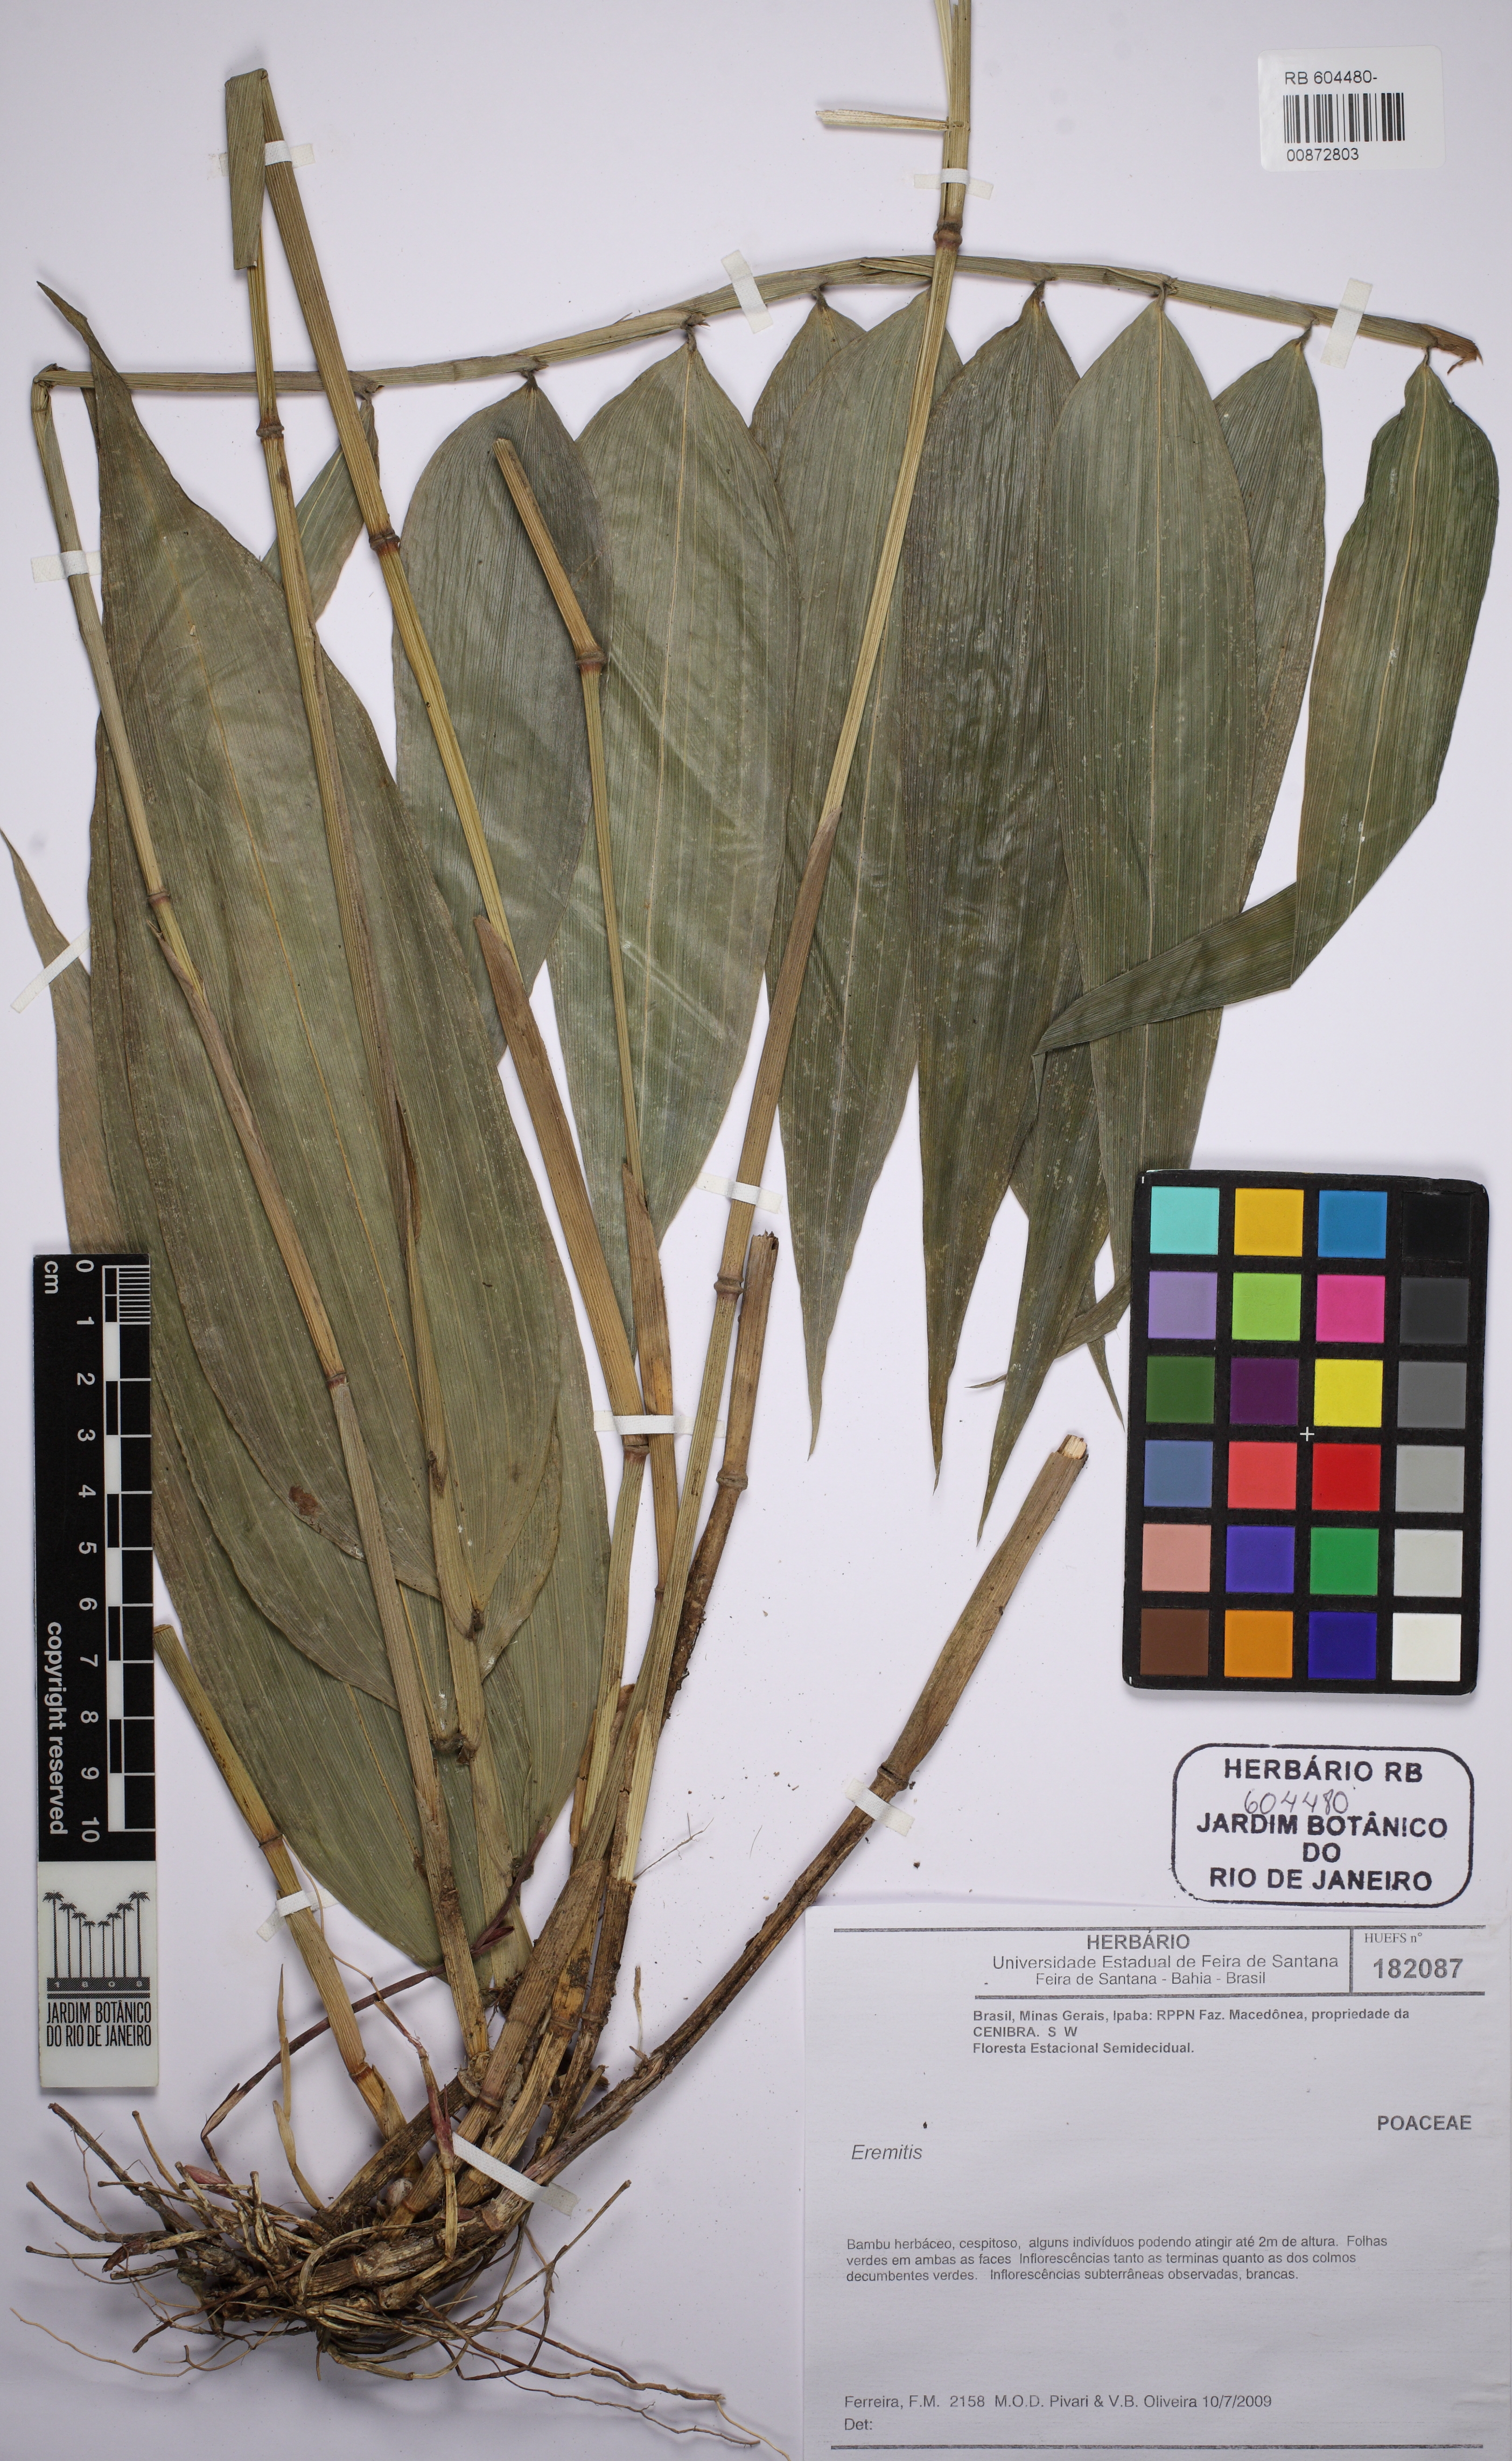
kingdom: Plantae
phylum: Tracheophyta
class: Liliopsida
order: Poales
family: Poaceae
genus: Eremitis
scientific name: Eremitis
